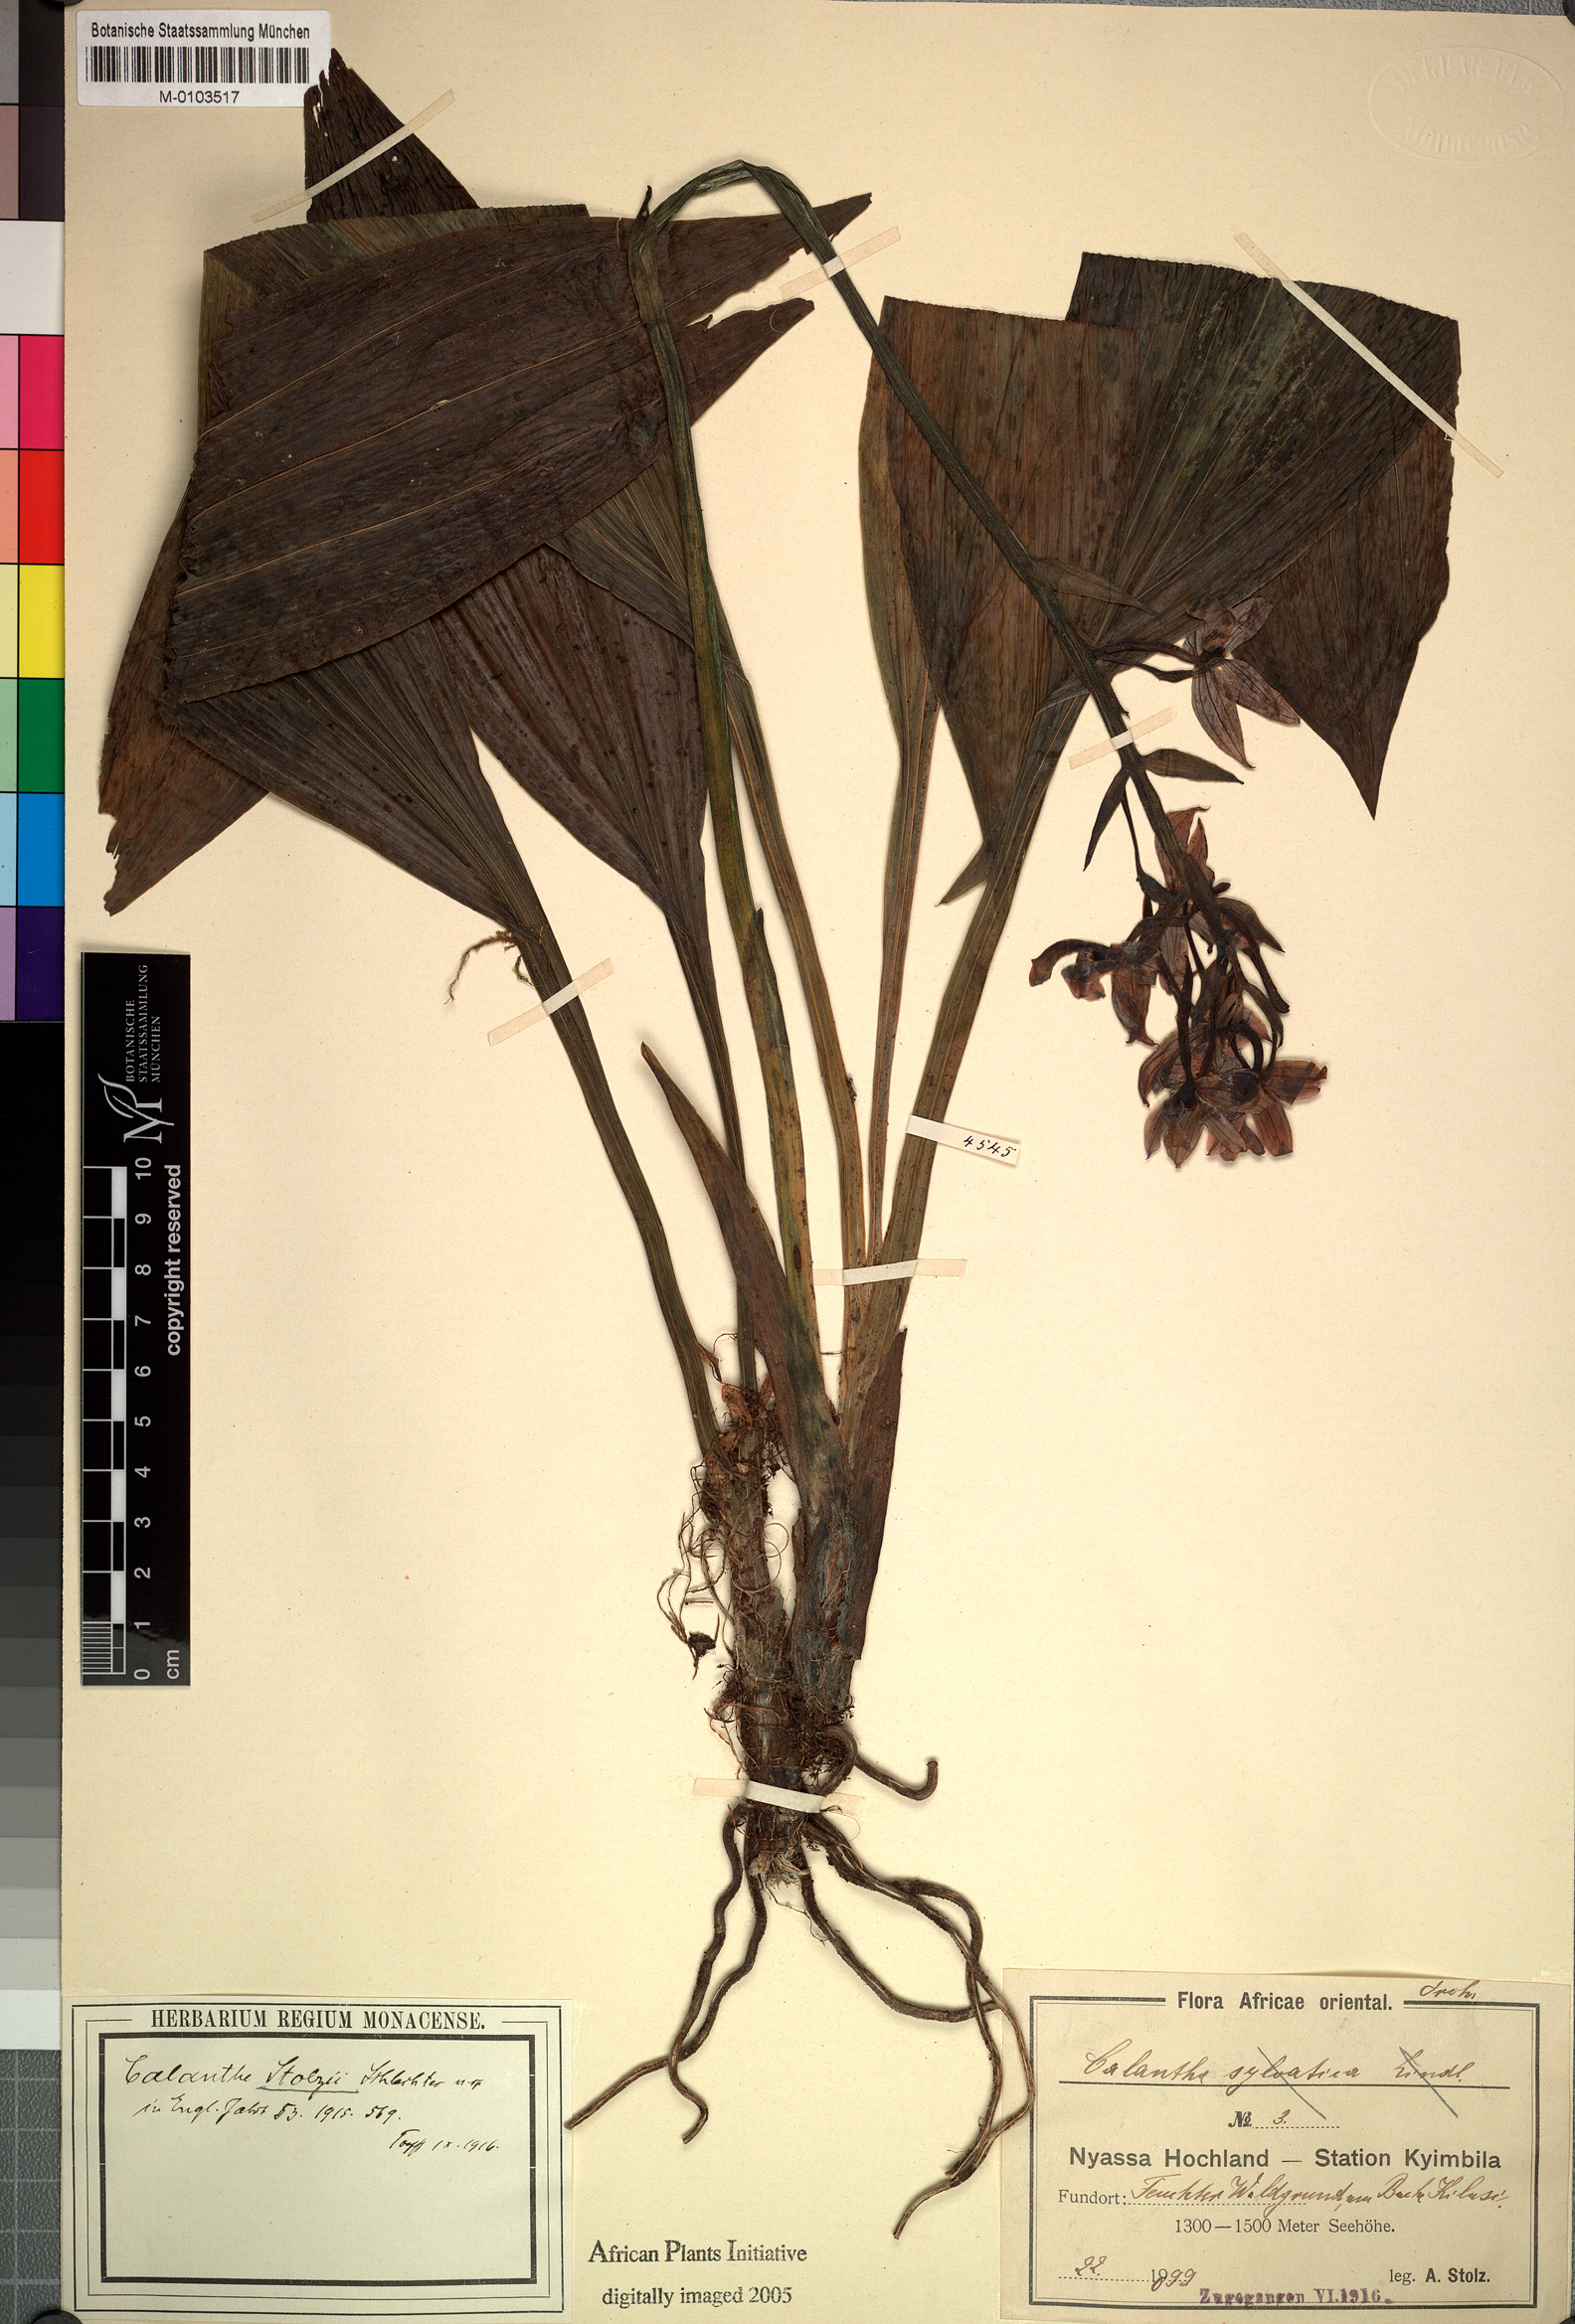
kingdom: Plantae
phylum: Tracheophyta
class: Liliopsida
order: Asparagales
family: Orchidaceae
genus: Calanthe
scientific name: Calanthe sylvatica
